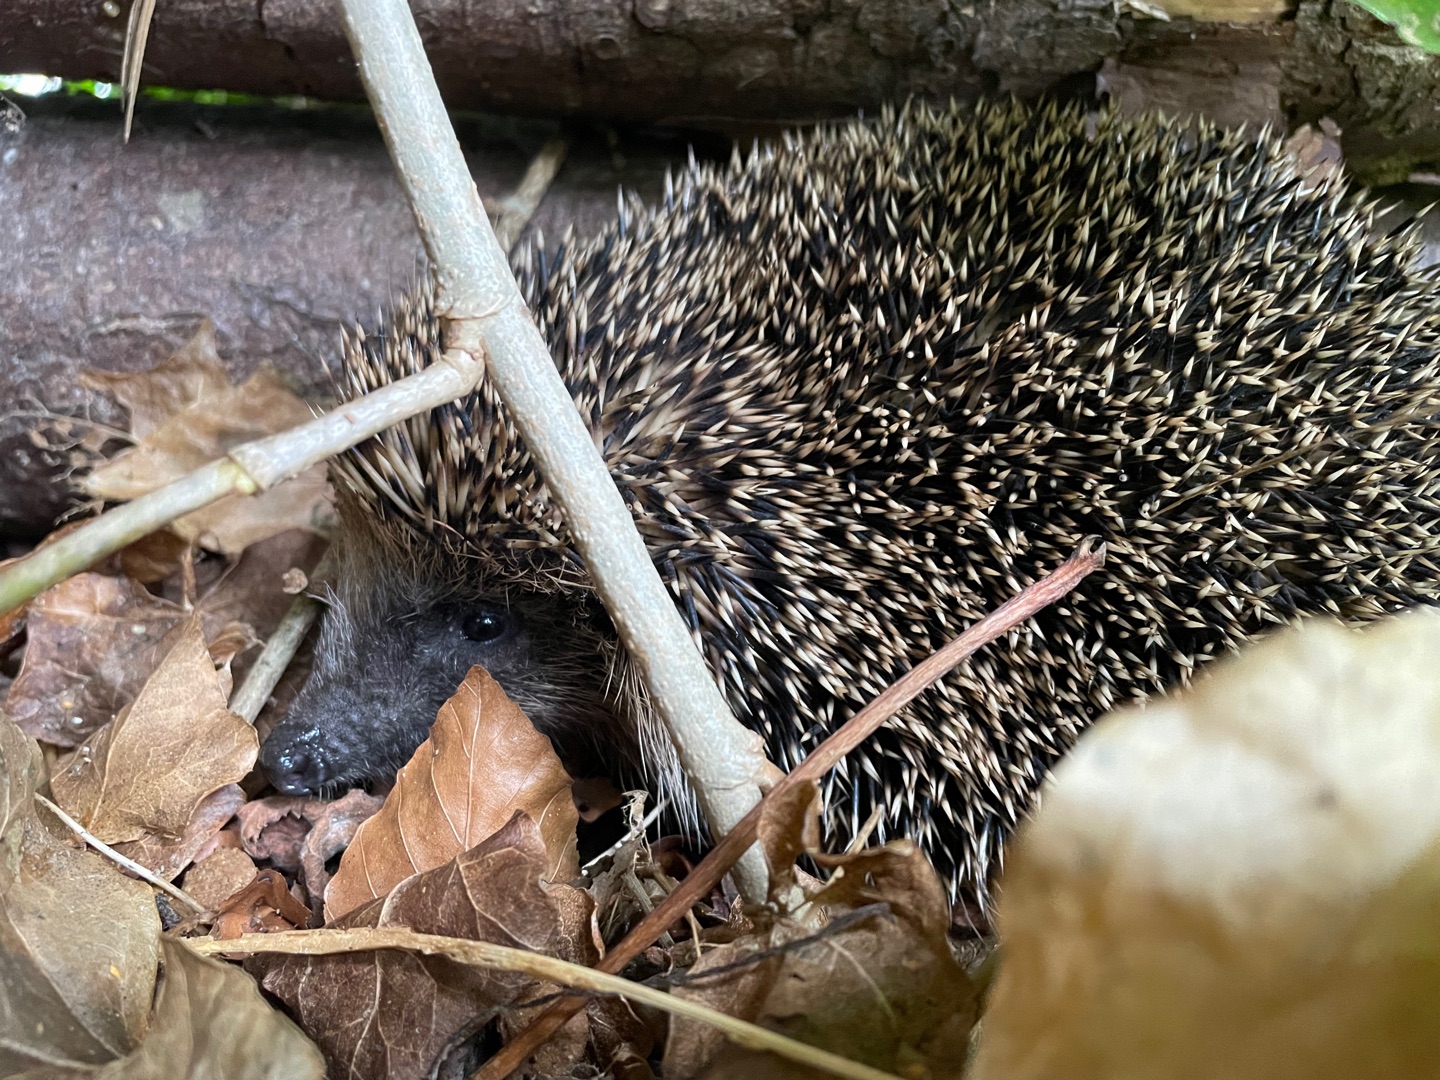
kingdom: Animalia
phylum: Chordata
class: Mammalia
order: Erinaceomorpha
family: Erinaceidae
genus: Erinaceus
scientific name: Erinaceus europaeus
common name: Pindsvin
